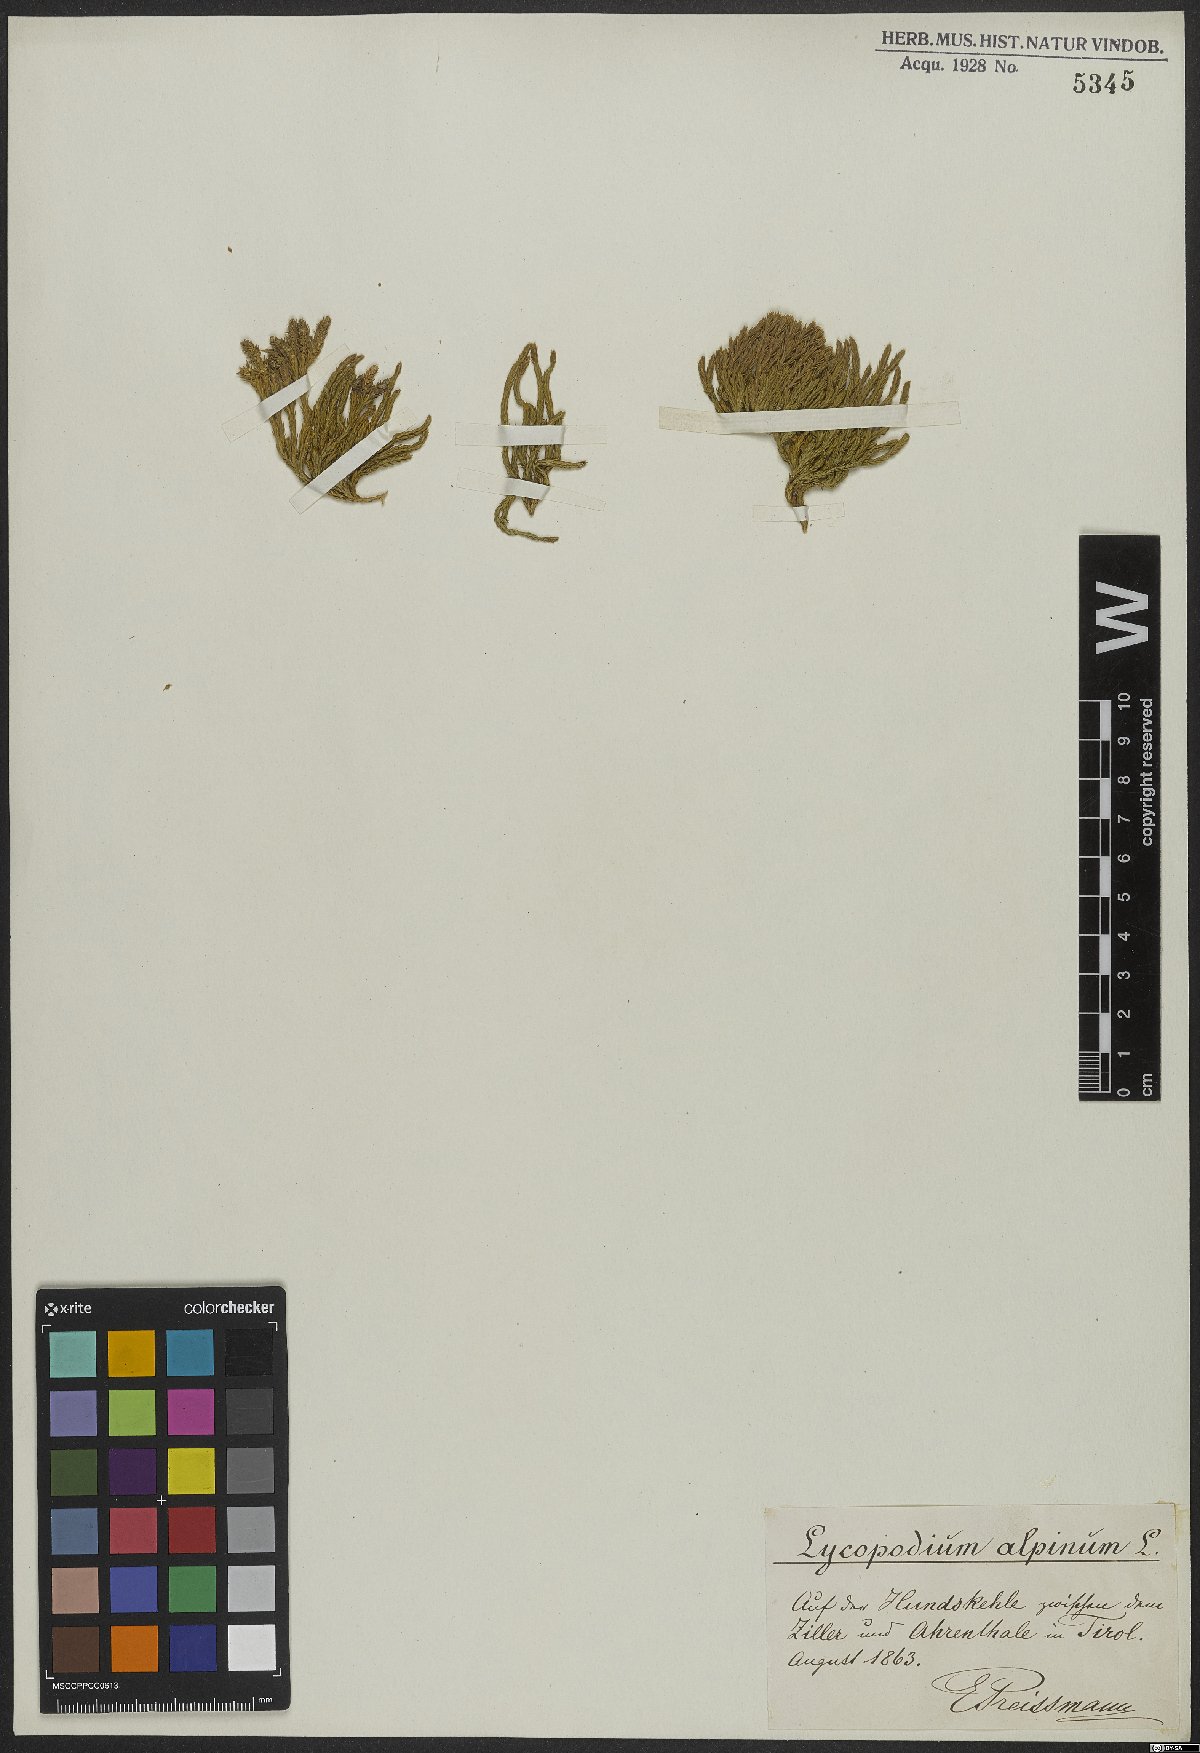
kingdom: Plantae
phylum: Tracheophyta
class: Lycopodiopsida
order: Lycopodiales
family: Lycopodiaceae
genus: Diphasiastrum
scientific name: Diphasiastrum alpinum
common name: Alpine clubmoss
